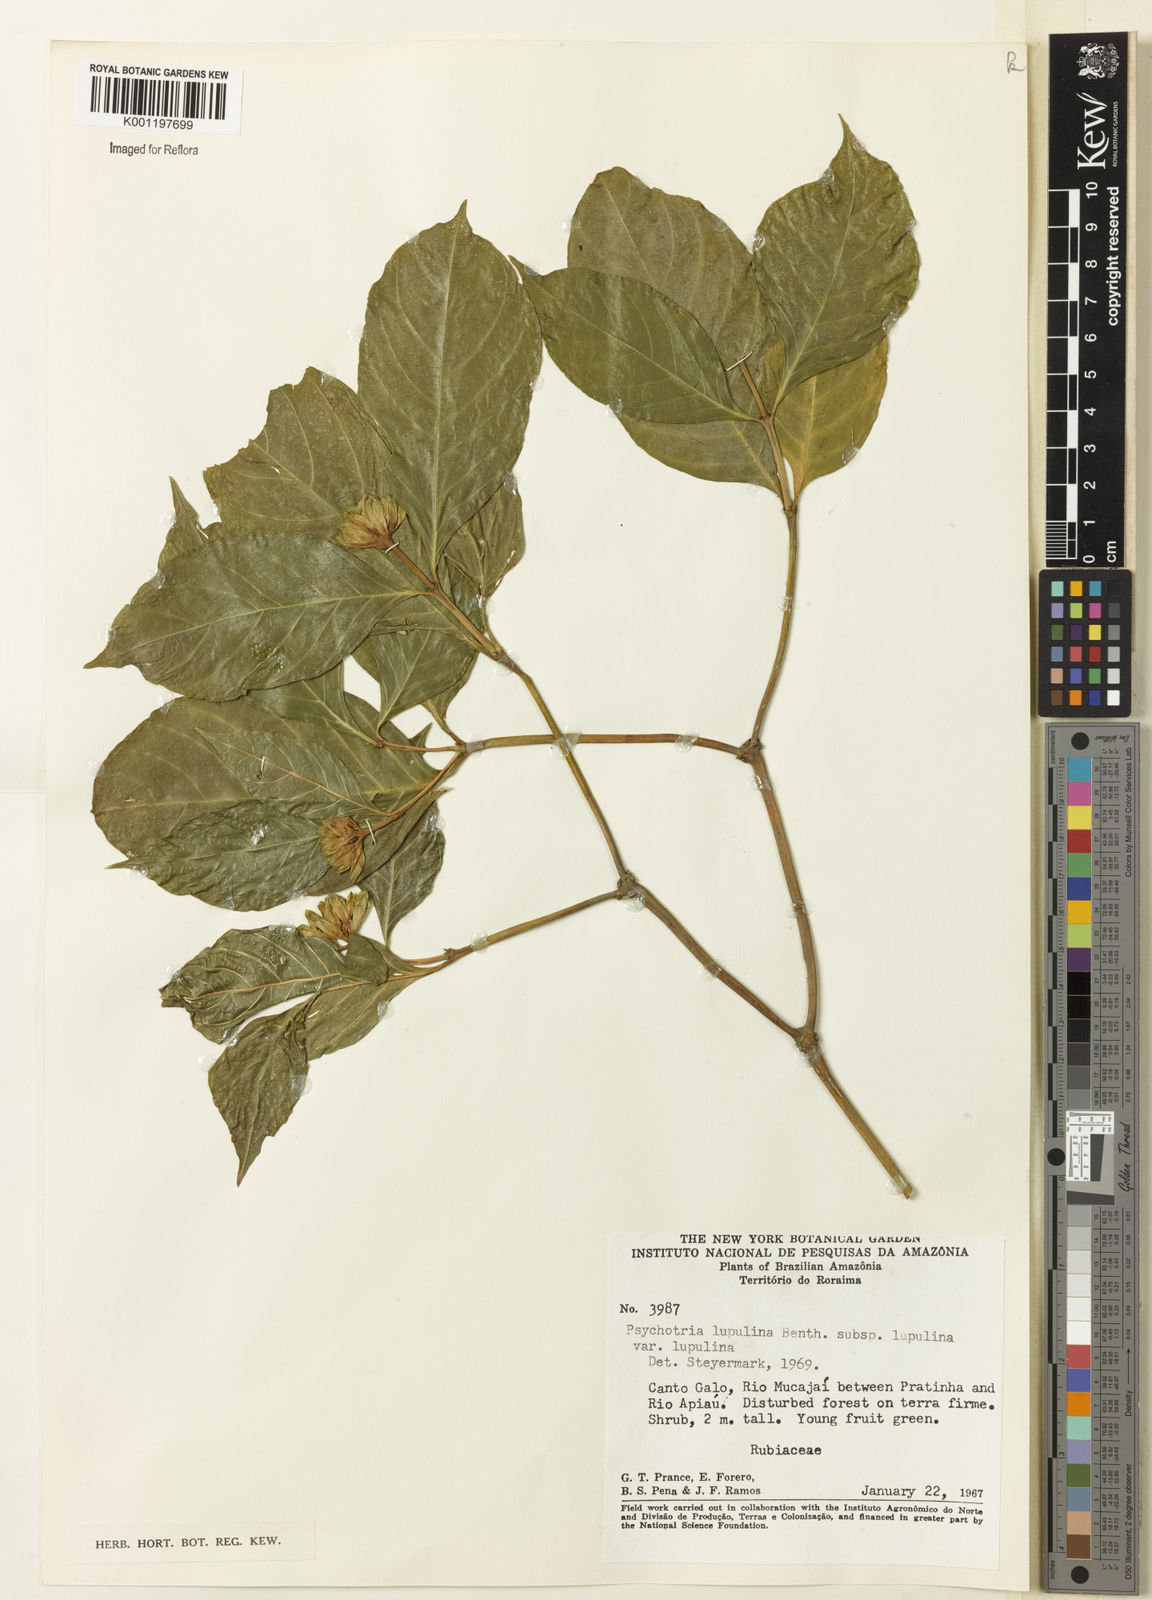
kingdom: Plantae
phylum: Tracheophyta
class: Magnoliopsida
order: Gentianales
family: Rubiaceae
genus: Palicourea
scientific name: Palicourea justiciifolia
